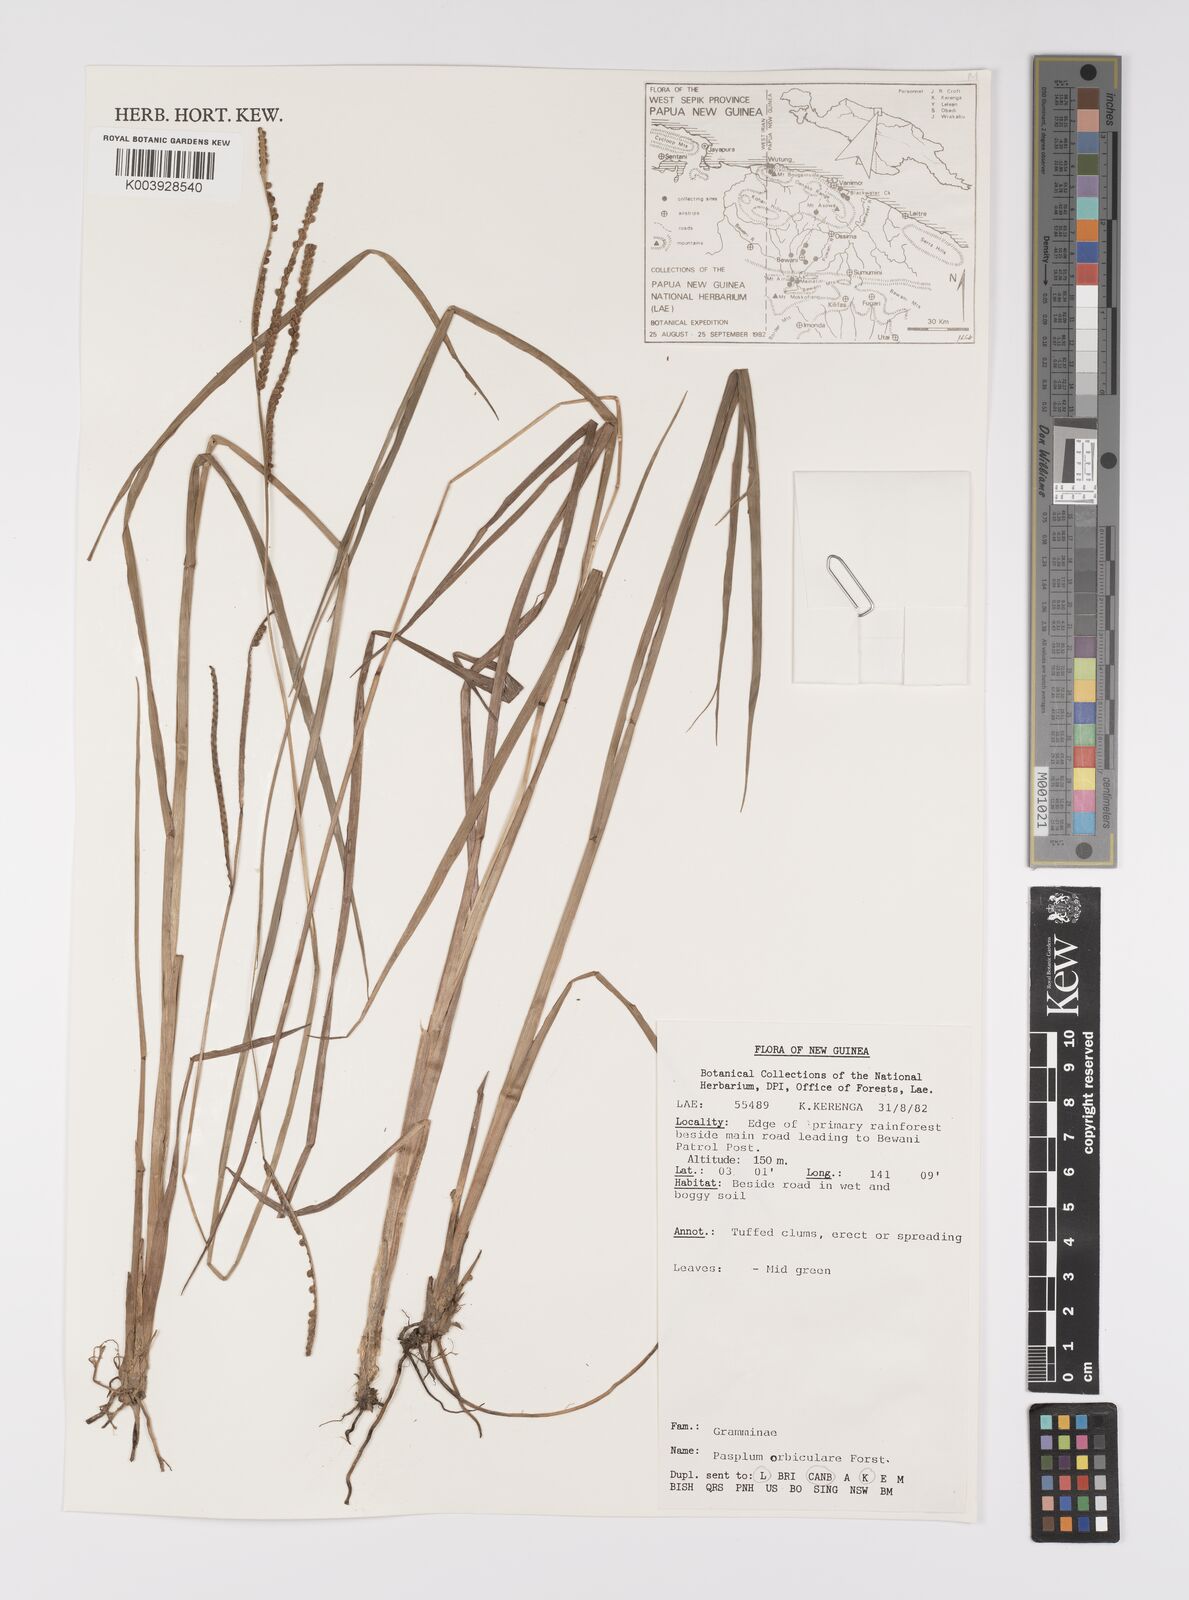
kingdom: Plantae
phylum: Tracheophyta
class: Liliopsida
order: Poales
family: Poaceae
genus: Paspalum
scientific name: Paspalum scrobiculatum
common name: Kodo millet
